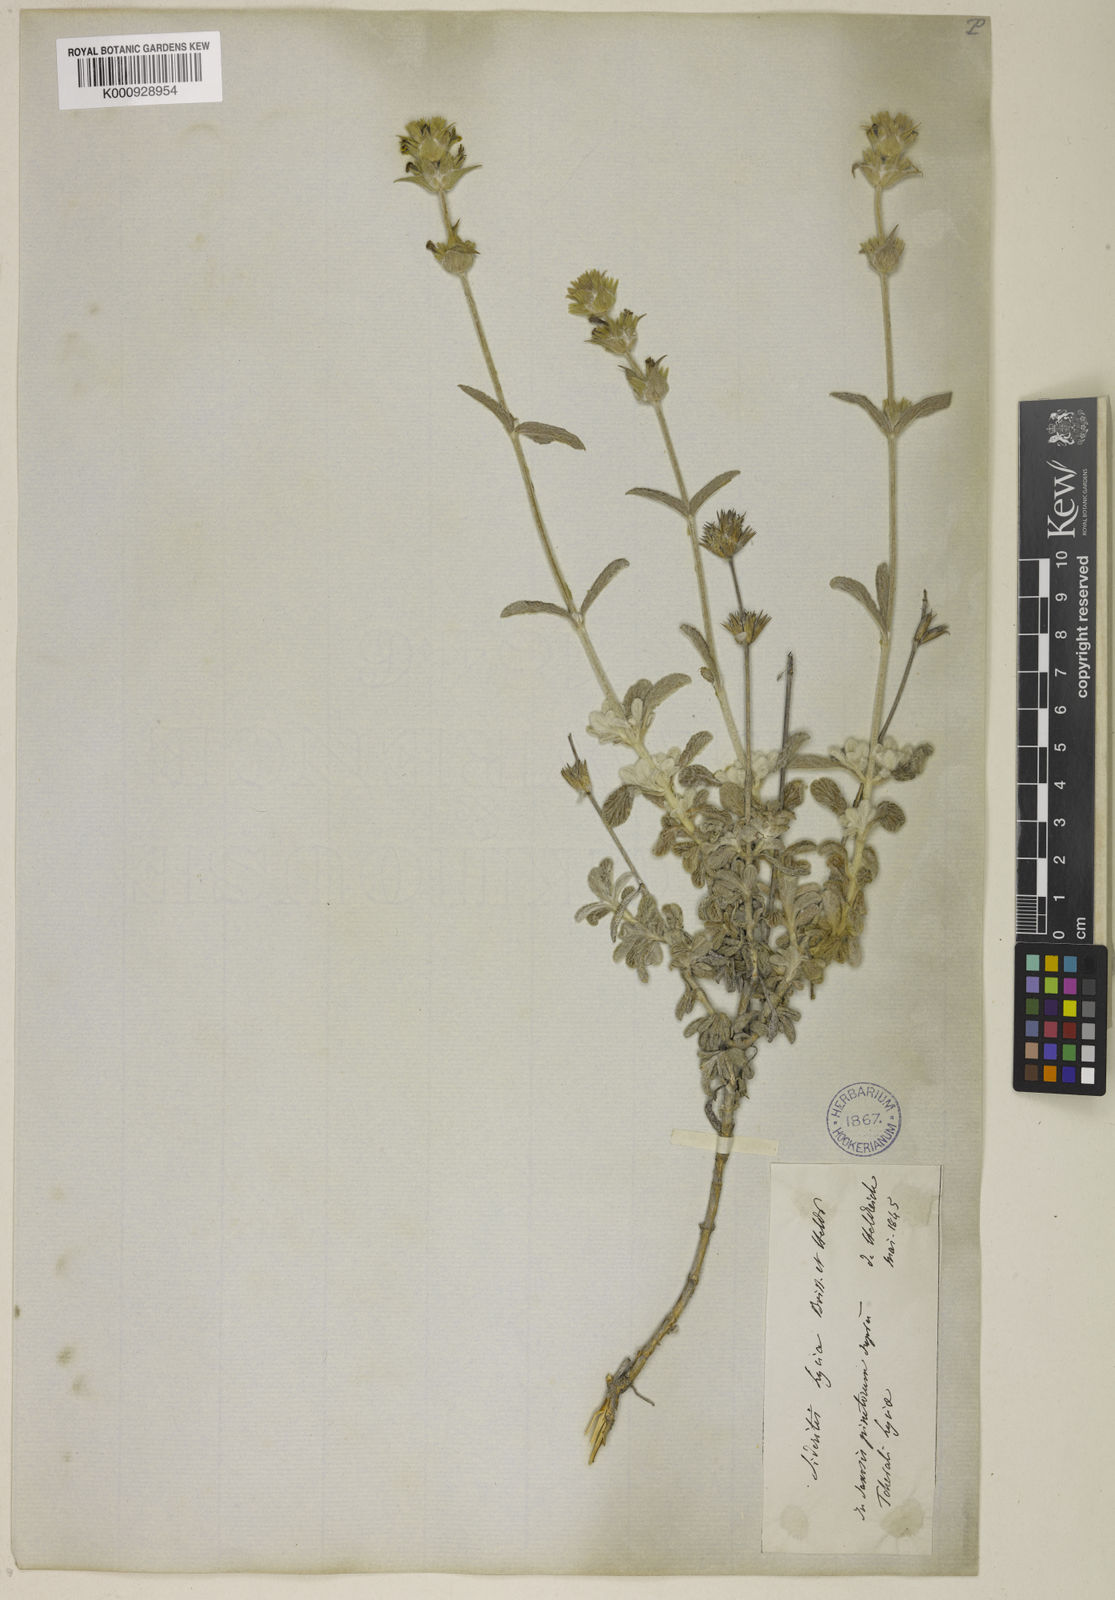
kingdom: Plantae
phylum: Tracheophyta
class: Magnoliopsida
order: Lamiales
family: Lamiaceae
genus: Sideritis
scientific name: Sideritis lycia
